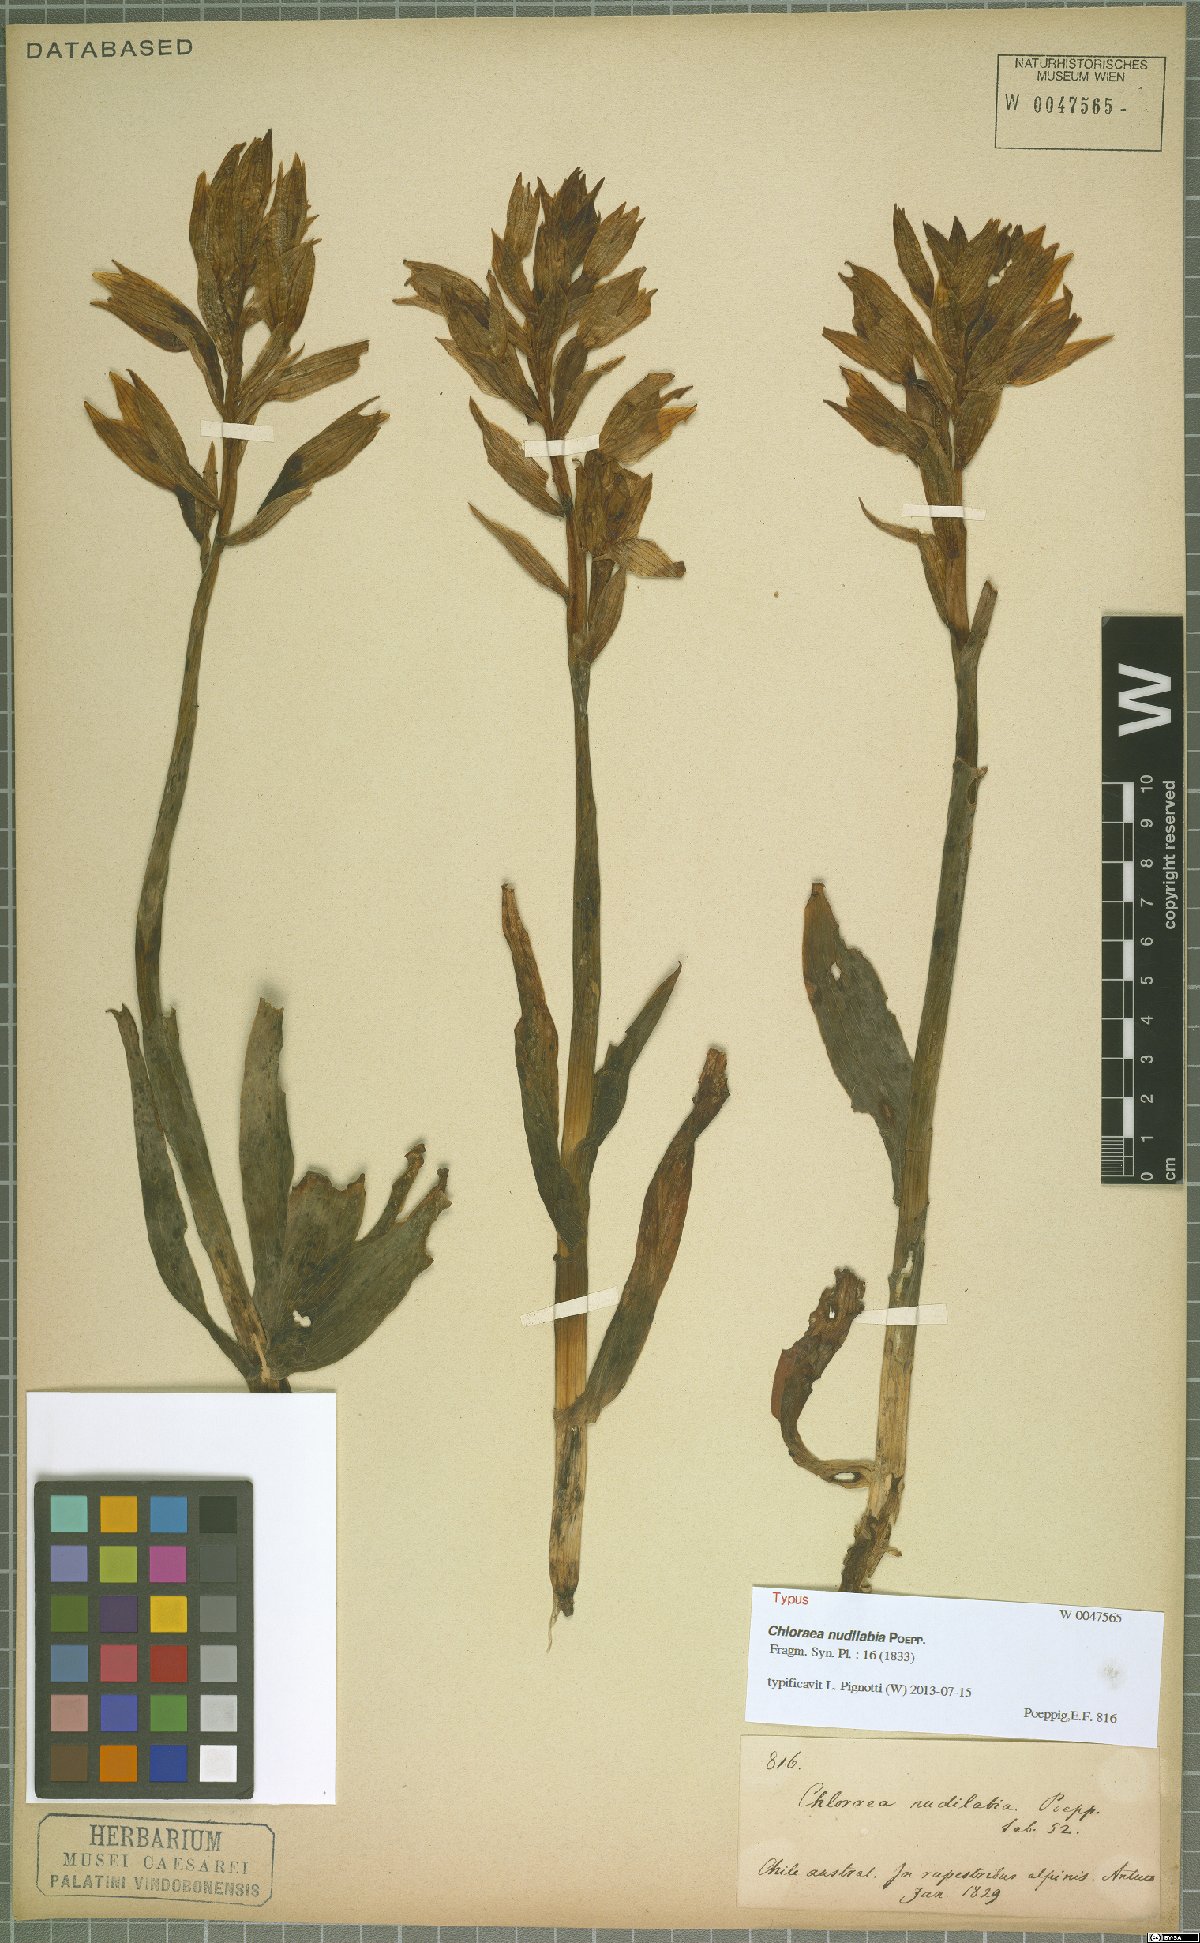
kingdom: Plantae
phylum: Tracheophyta
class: Liliopsida
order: Asparagales
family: Orchidaceae
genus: Chloraea
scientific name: Chloraea nudilabia
